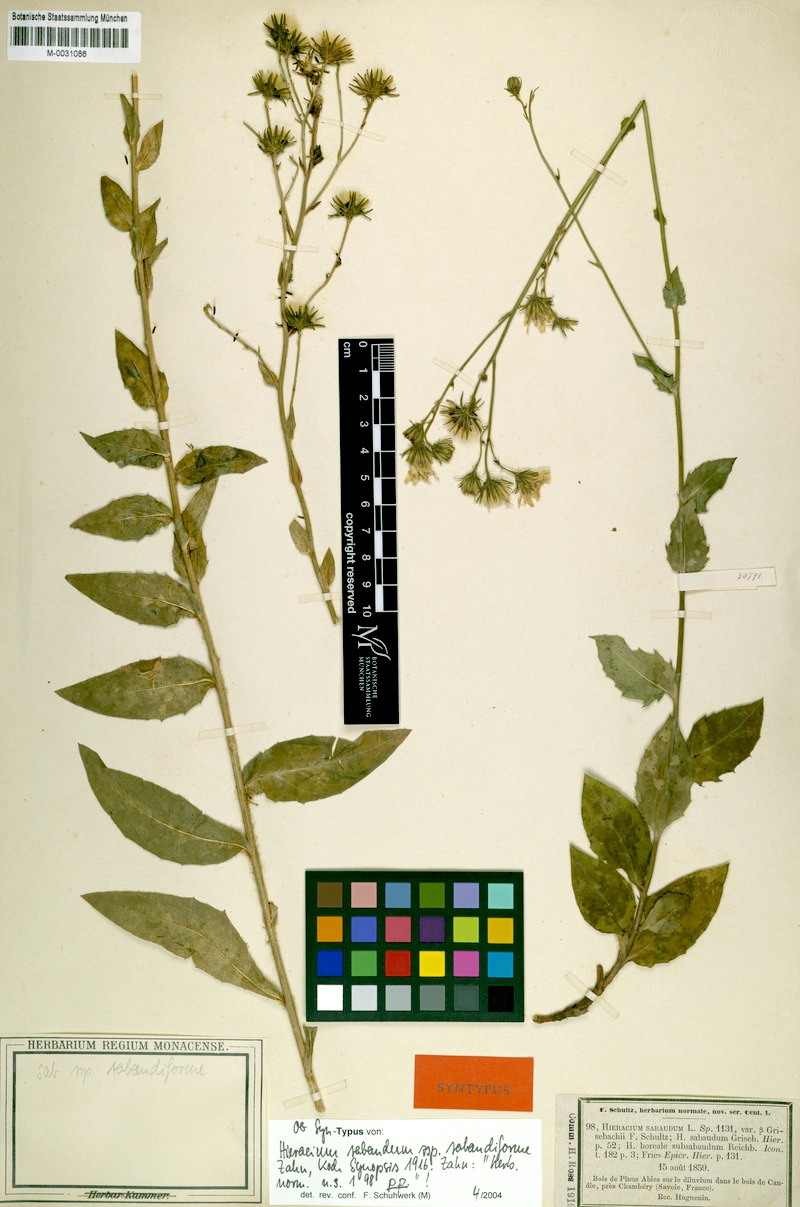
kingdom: Plantae
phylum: Tracheophyta
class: Magnoliopsida
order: Asterales
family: Asteraceae
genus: Hieracium
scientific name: Hieracium sabaudum
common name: New england hawkweed
